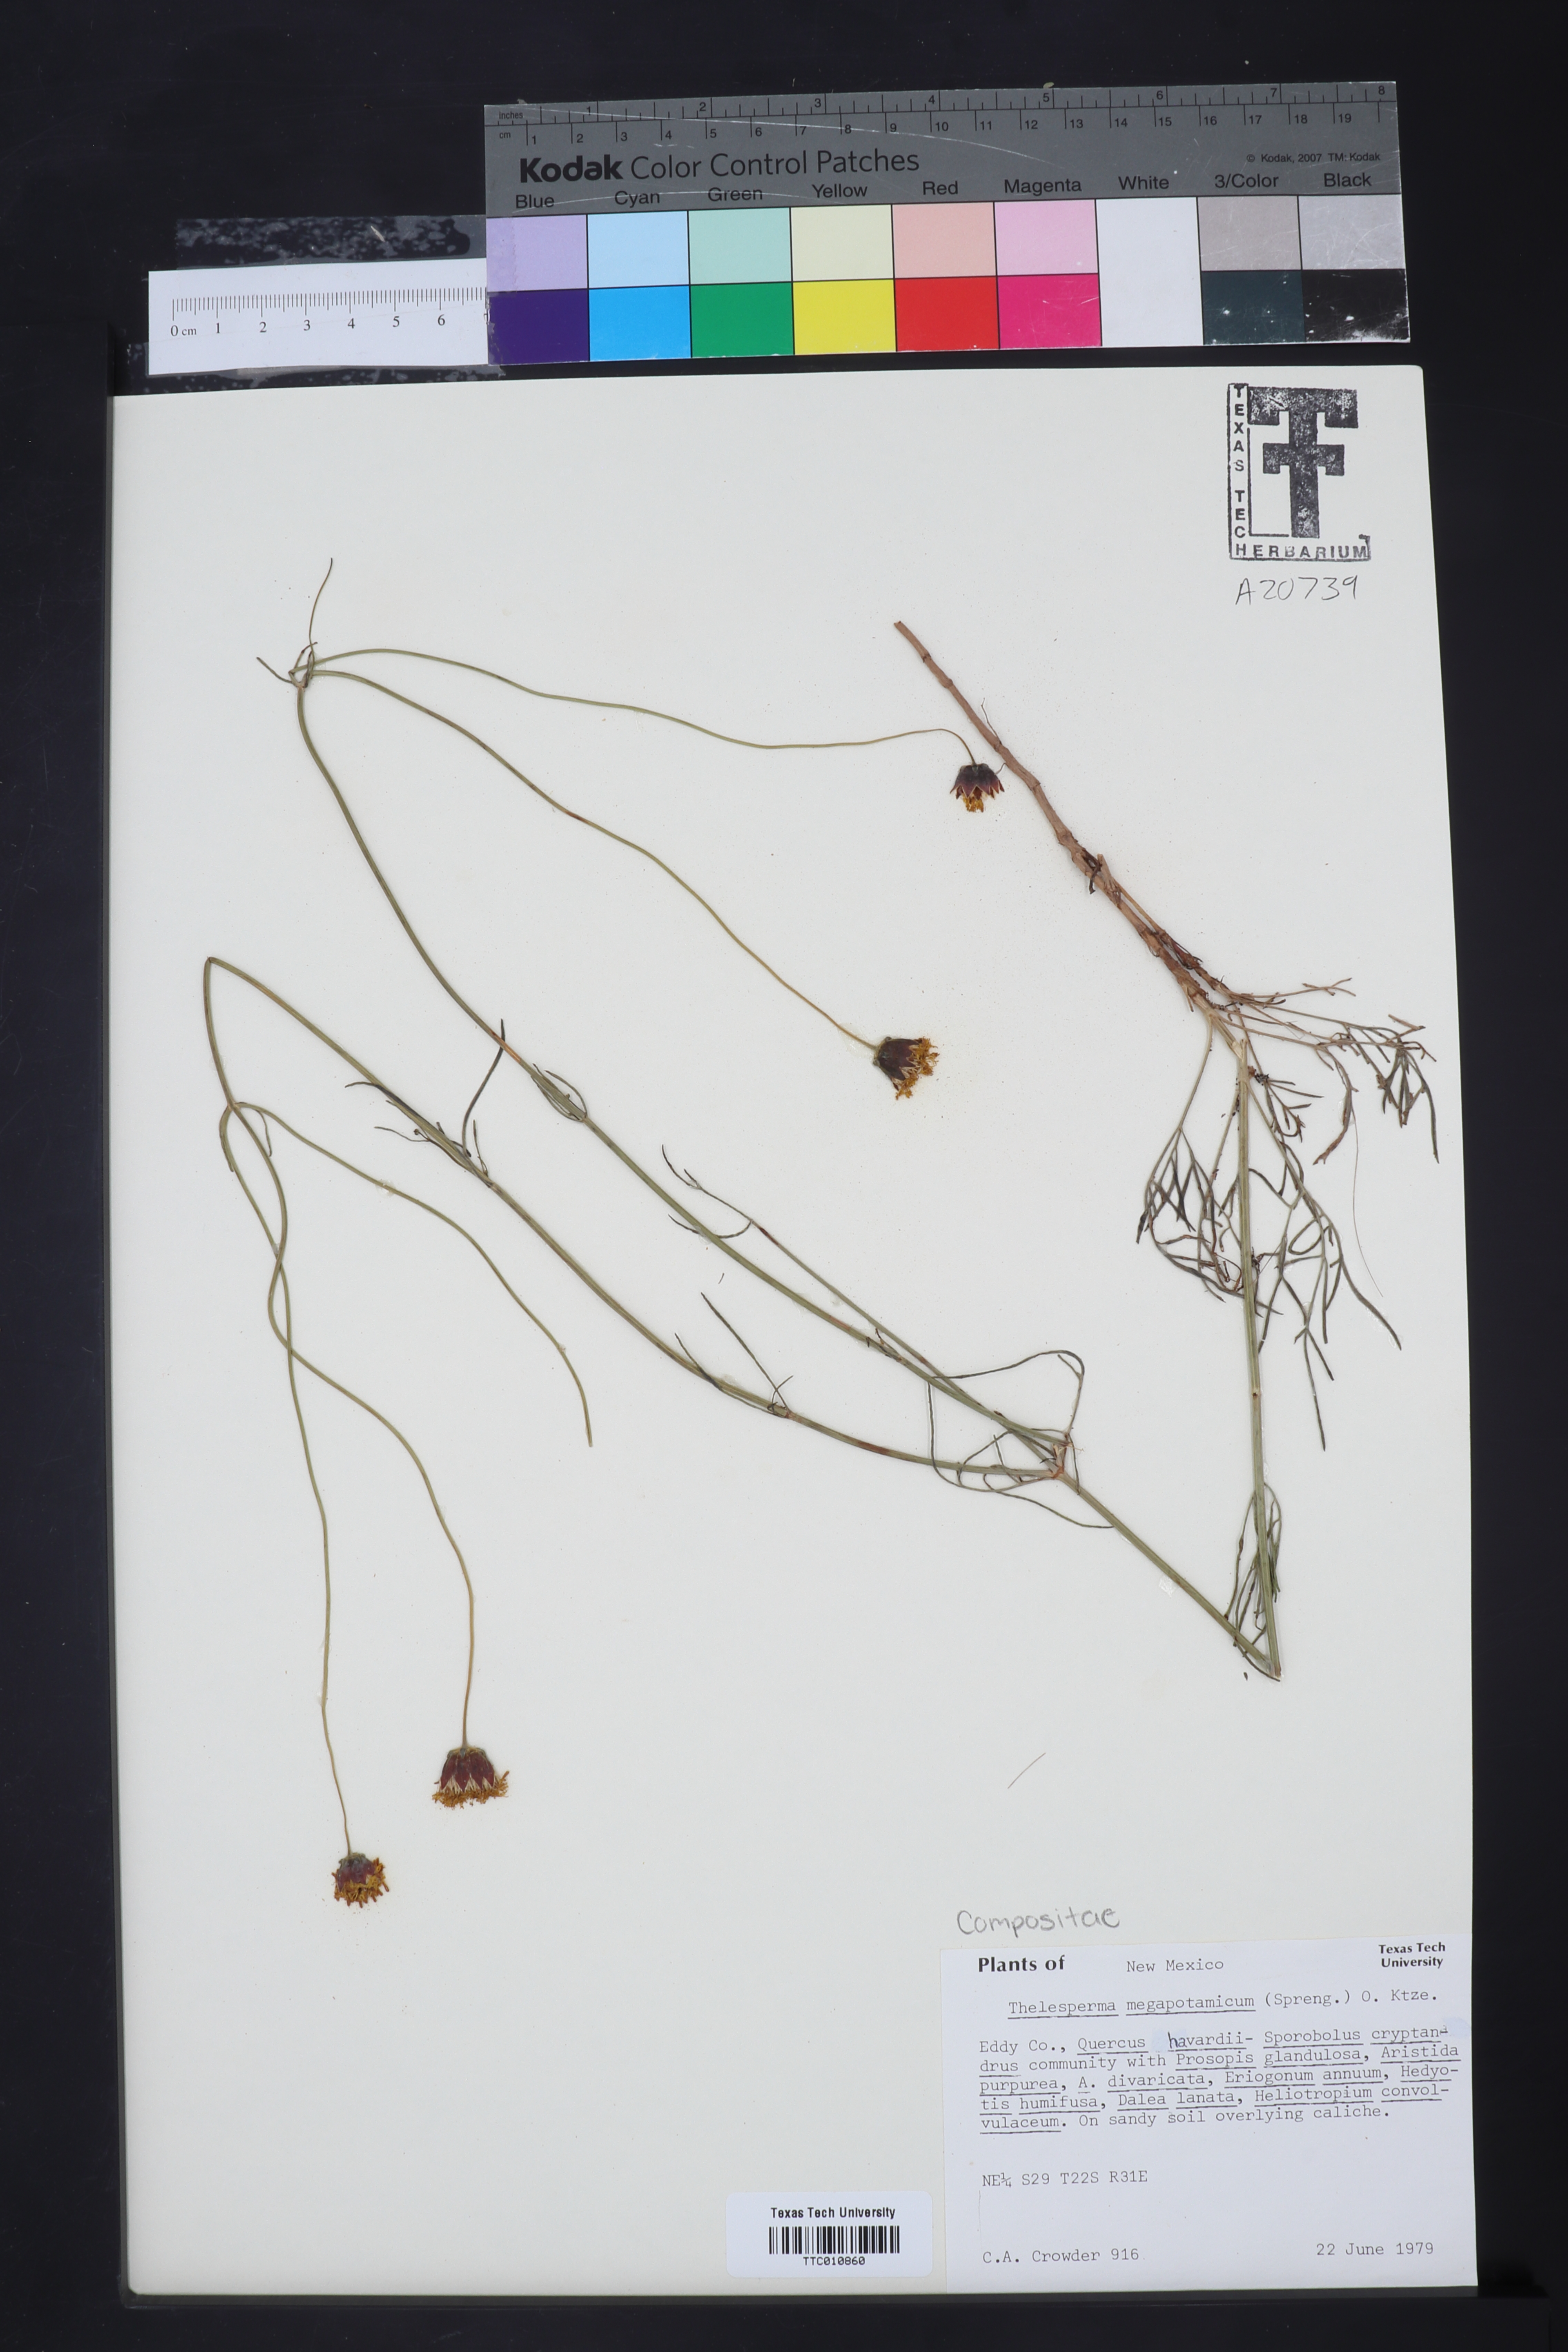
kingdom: Plantae
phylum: Tracheophyta
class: Magnoliopsida
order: Asterales
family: Asteraceae
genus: Thelesperma
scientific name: Thelesperma megapotamicum
